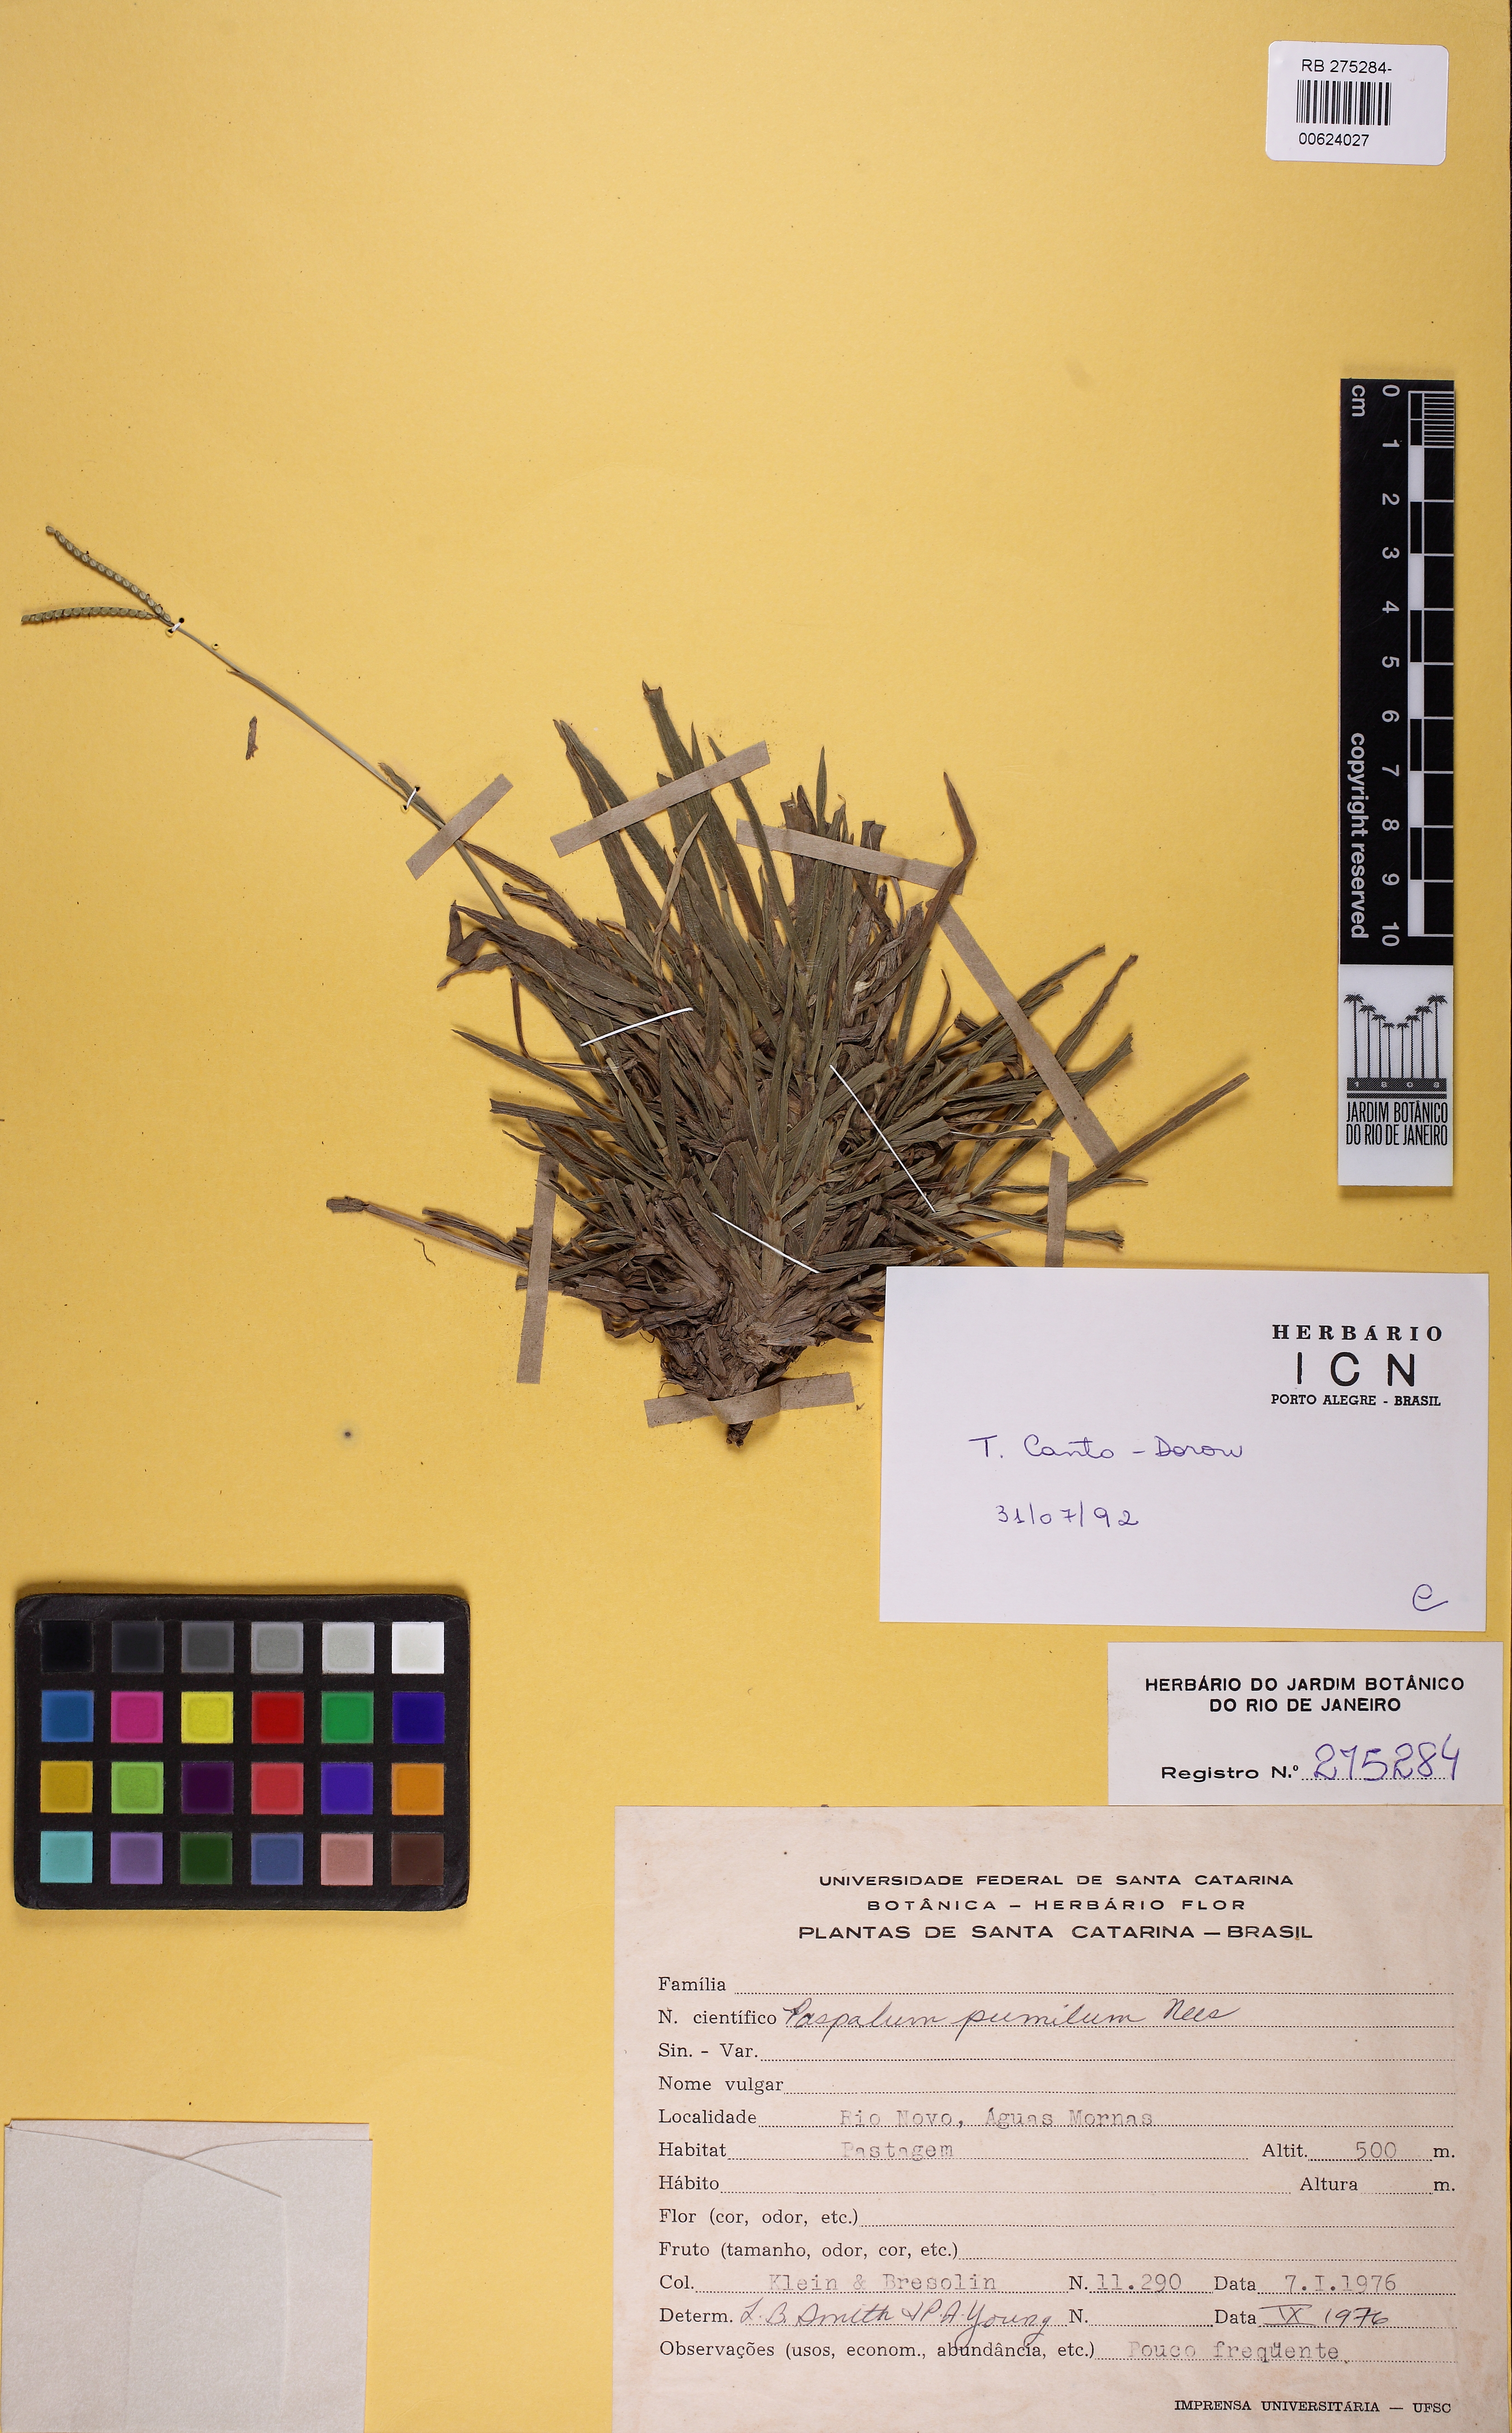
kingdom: Plantae
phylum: Tracheophyta
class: Liliopsida
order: Poales
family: Poaceae
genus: Paspalum
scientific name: Paspalum pumilum
